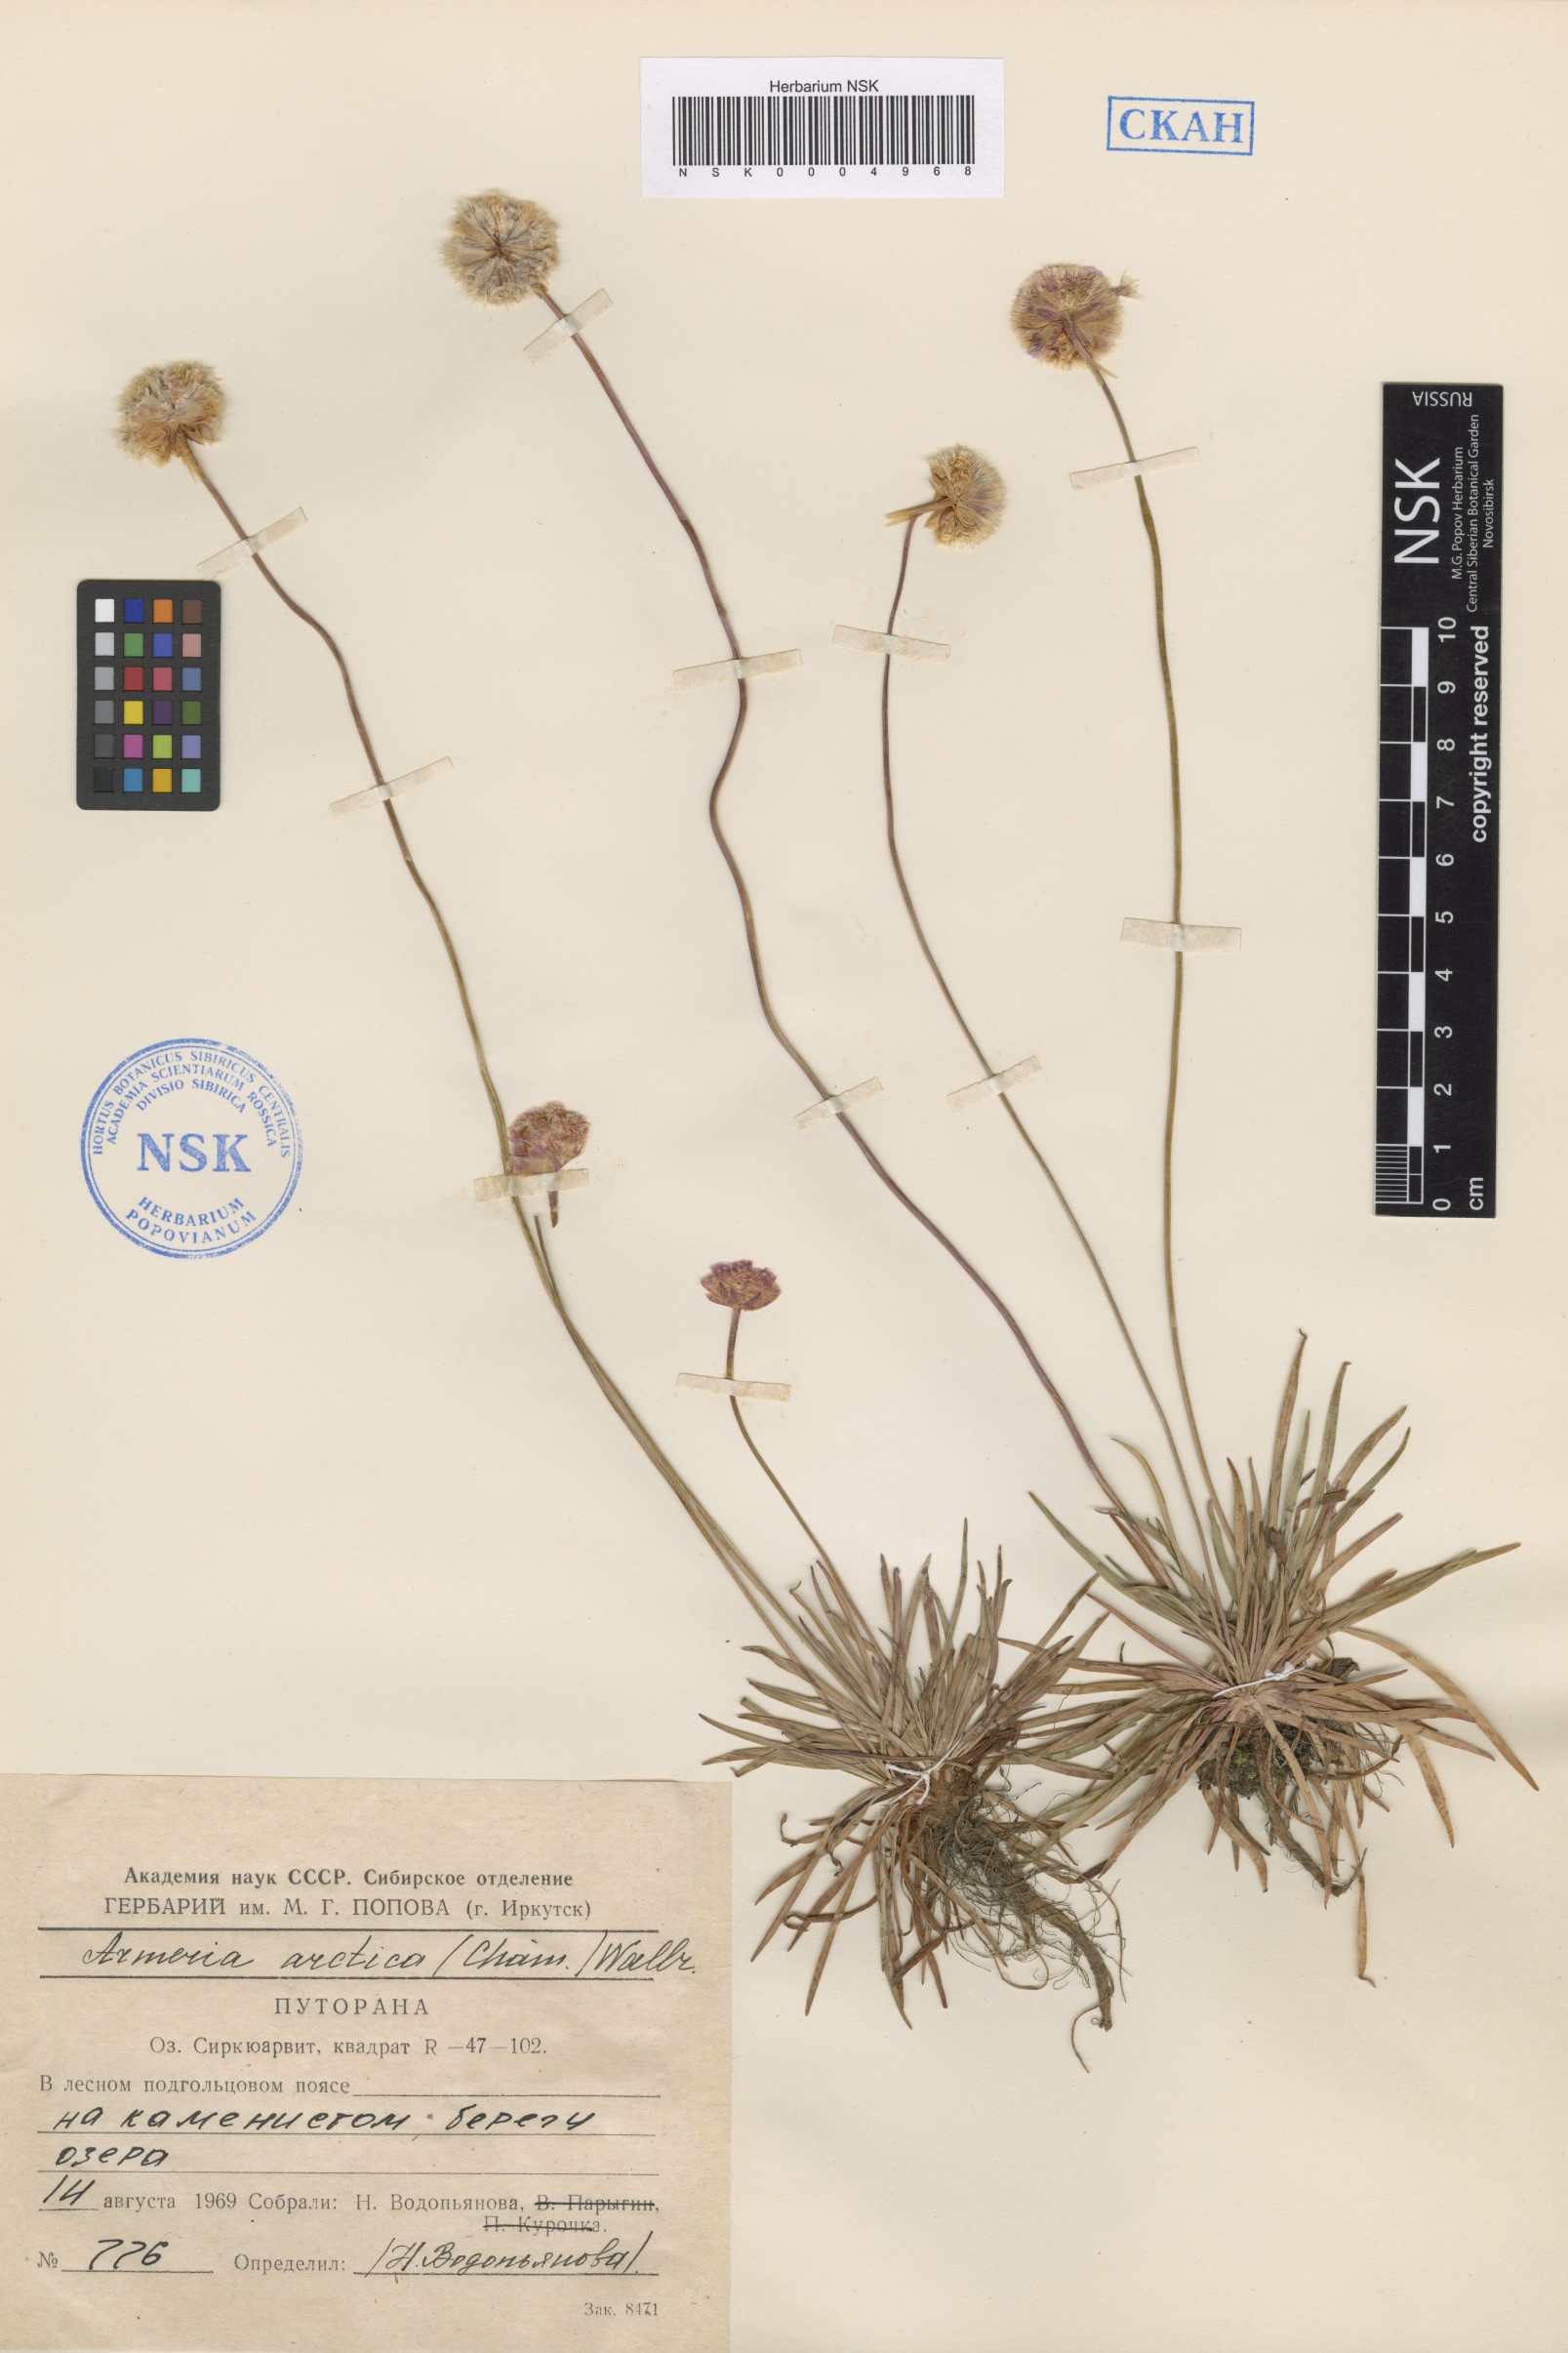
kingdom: Plantae
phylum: Tracheophyta
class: Magnoliopsida
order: Caryophyllales
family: Plumbaginaceae
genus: Armeria
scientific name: Armeria maritima
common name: Thrift
